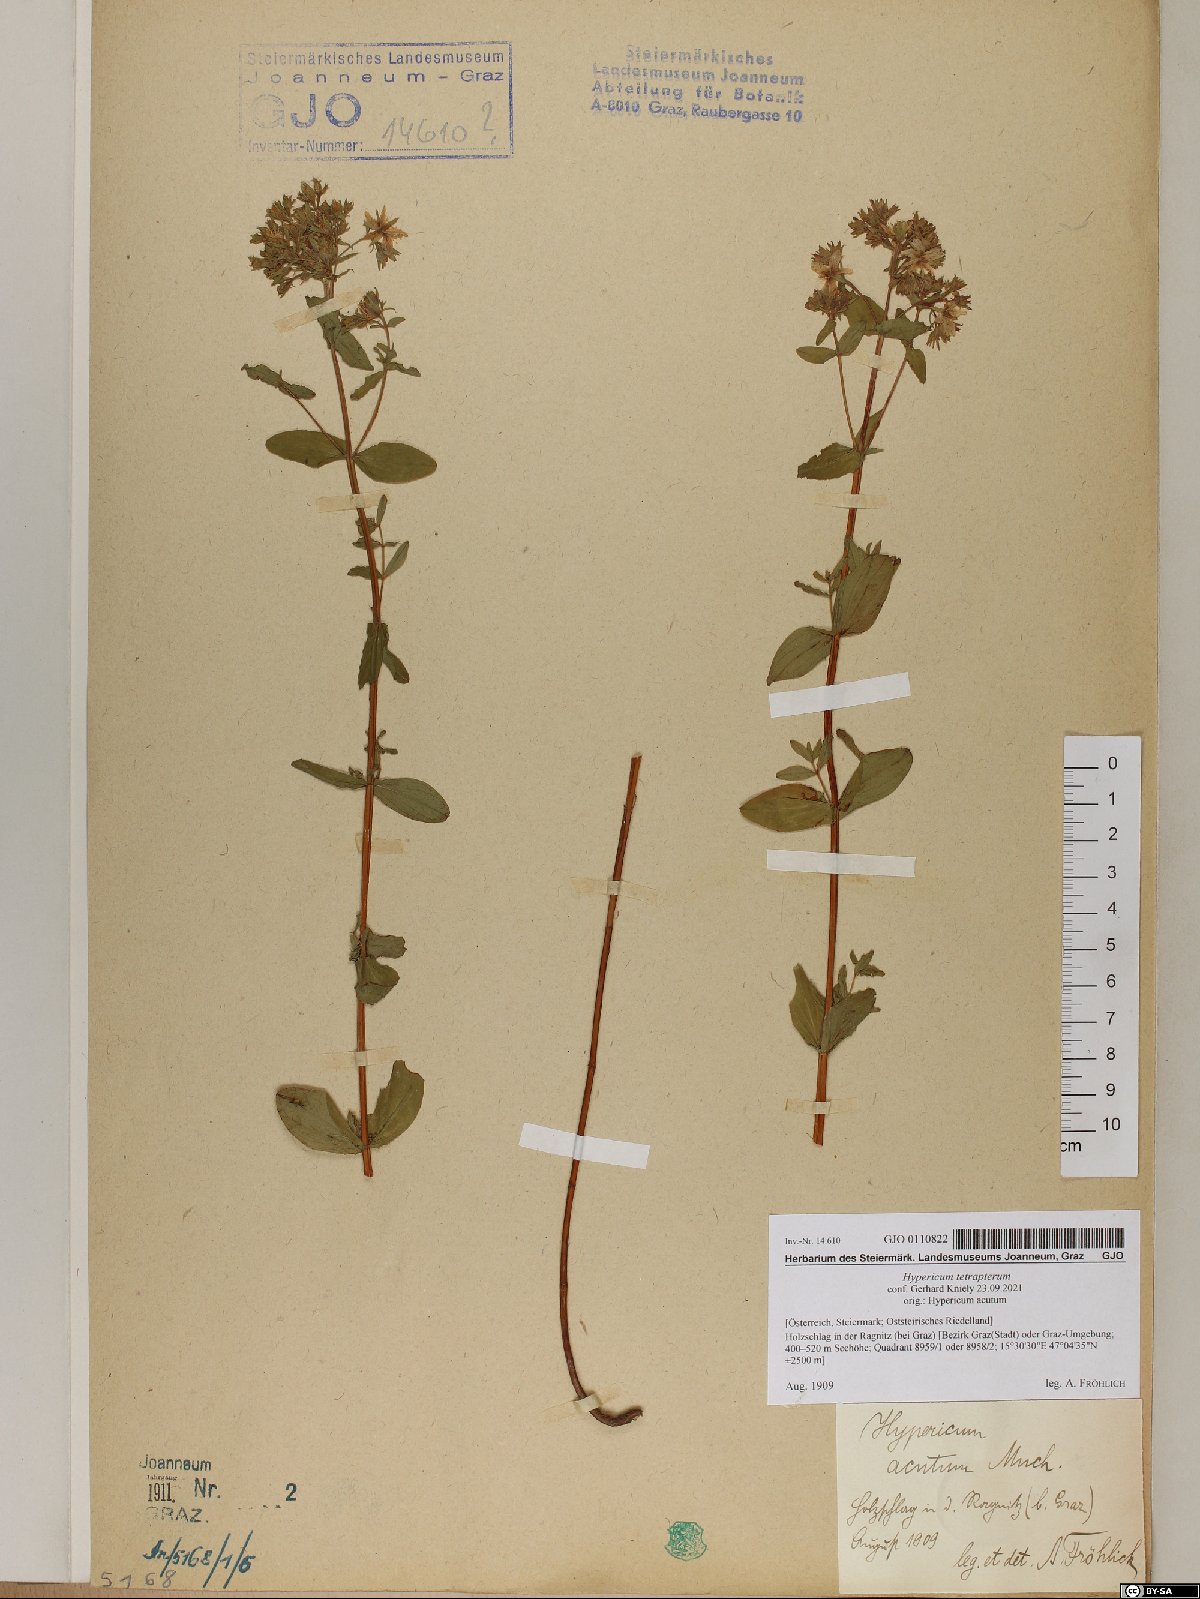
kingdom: Plantae
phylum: Tracheophyta
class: Magnoliopsida
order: Malpighiales
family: Hypericaceae
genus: Hypericum
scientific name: Hypericum tetrapterum
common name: Square-stalked st. john's-wort
